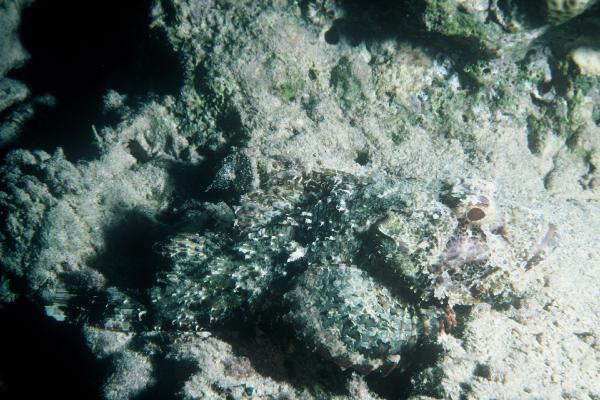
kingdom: Animalia
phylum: Chordata
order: Scorpaeniformes
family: Scorpaenidae
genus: Scorpaenopsis
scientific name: Scorpaenopsis barbata
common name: Bearded scorpionfish
